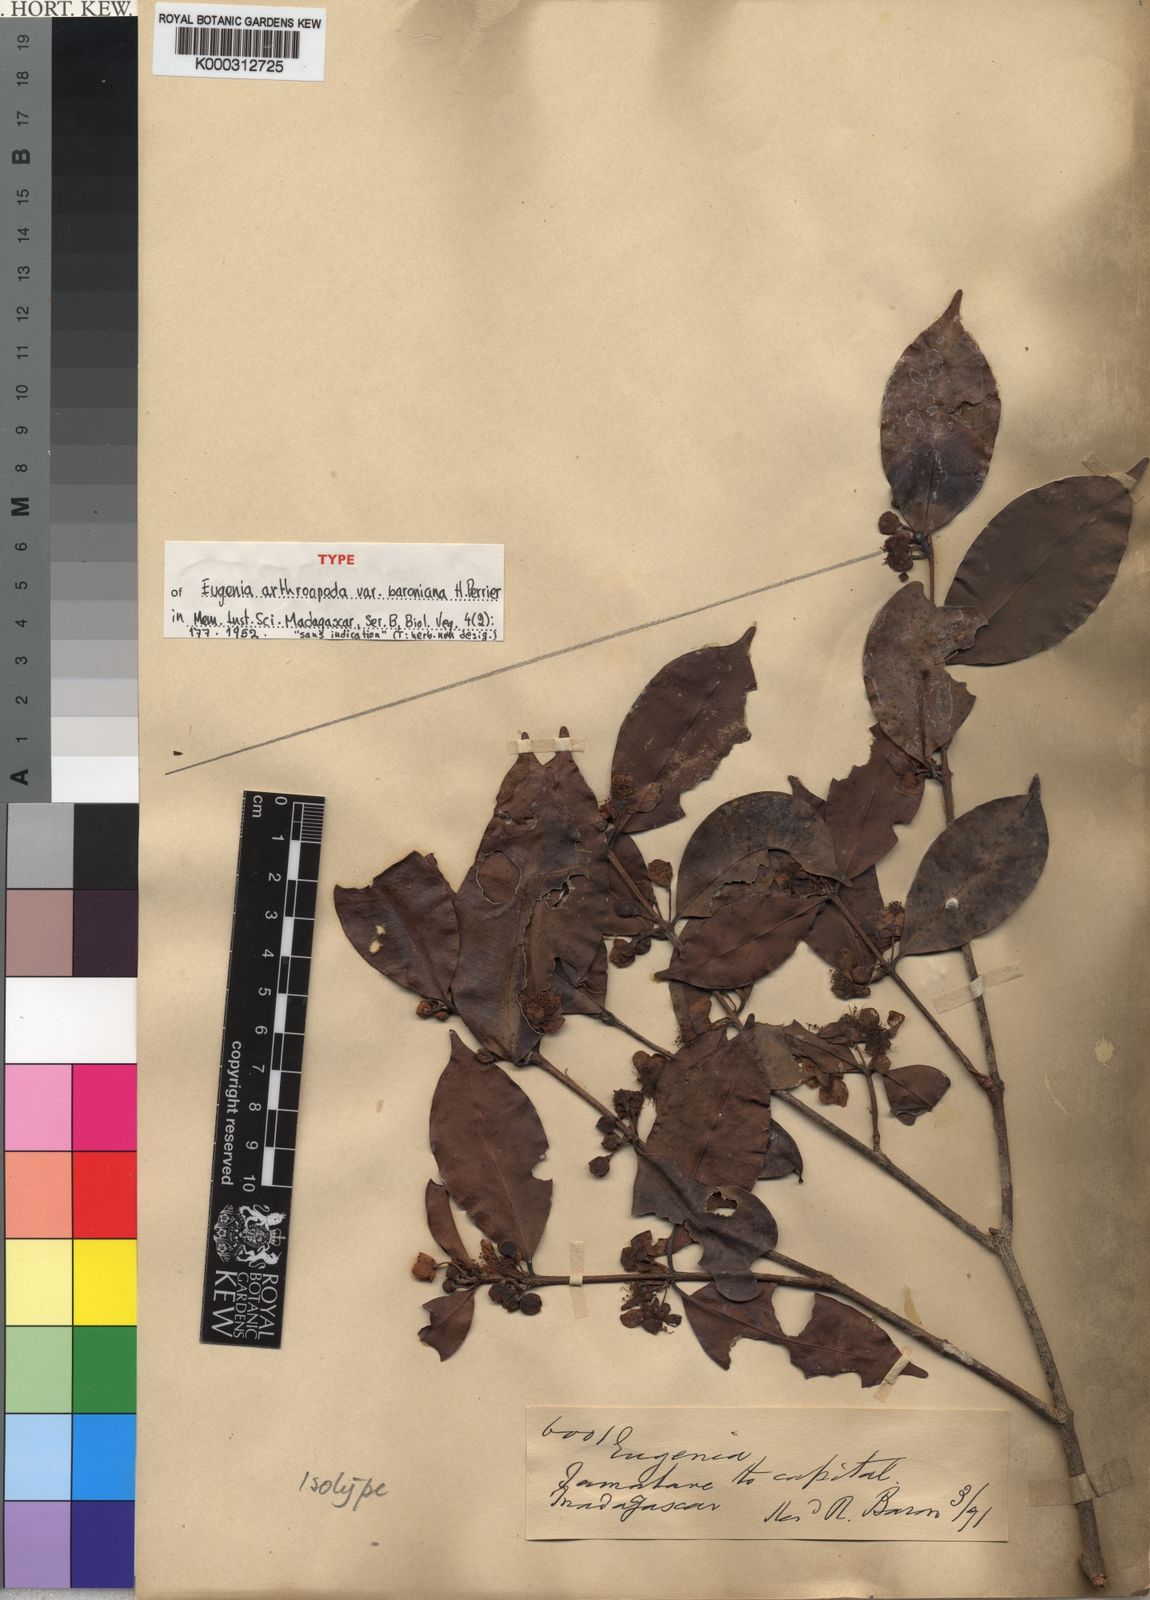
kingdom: Plantae
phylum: Tracheophyta
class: Magnoliopsida
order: Myrtales
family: Myrtaceae
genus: Eugenia
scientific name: Eugenia
